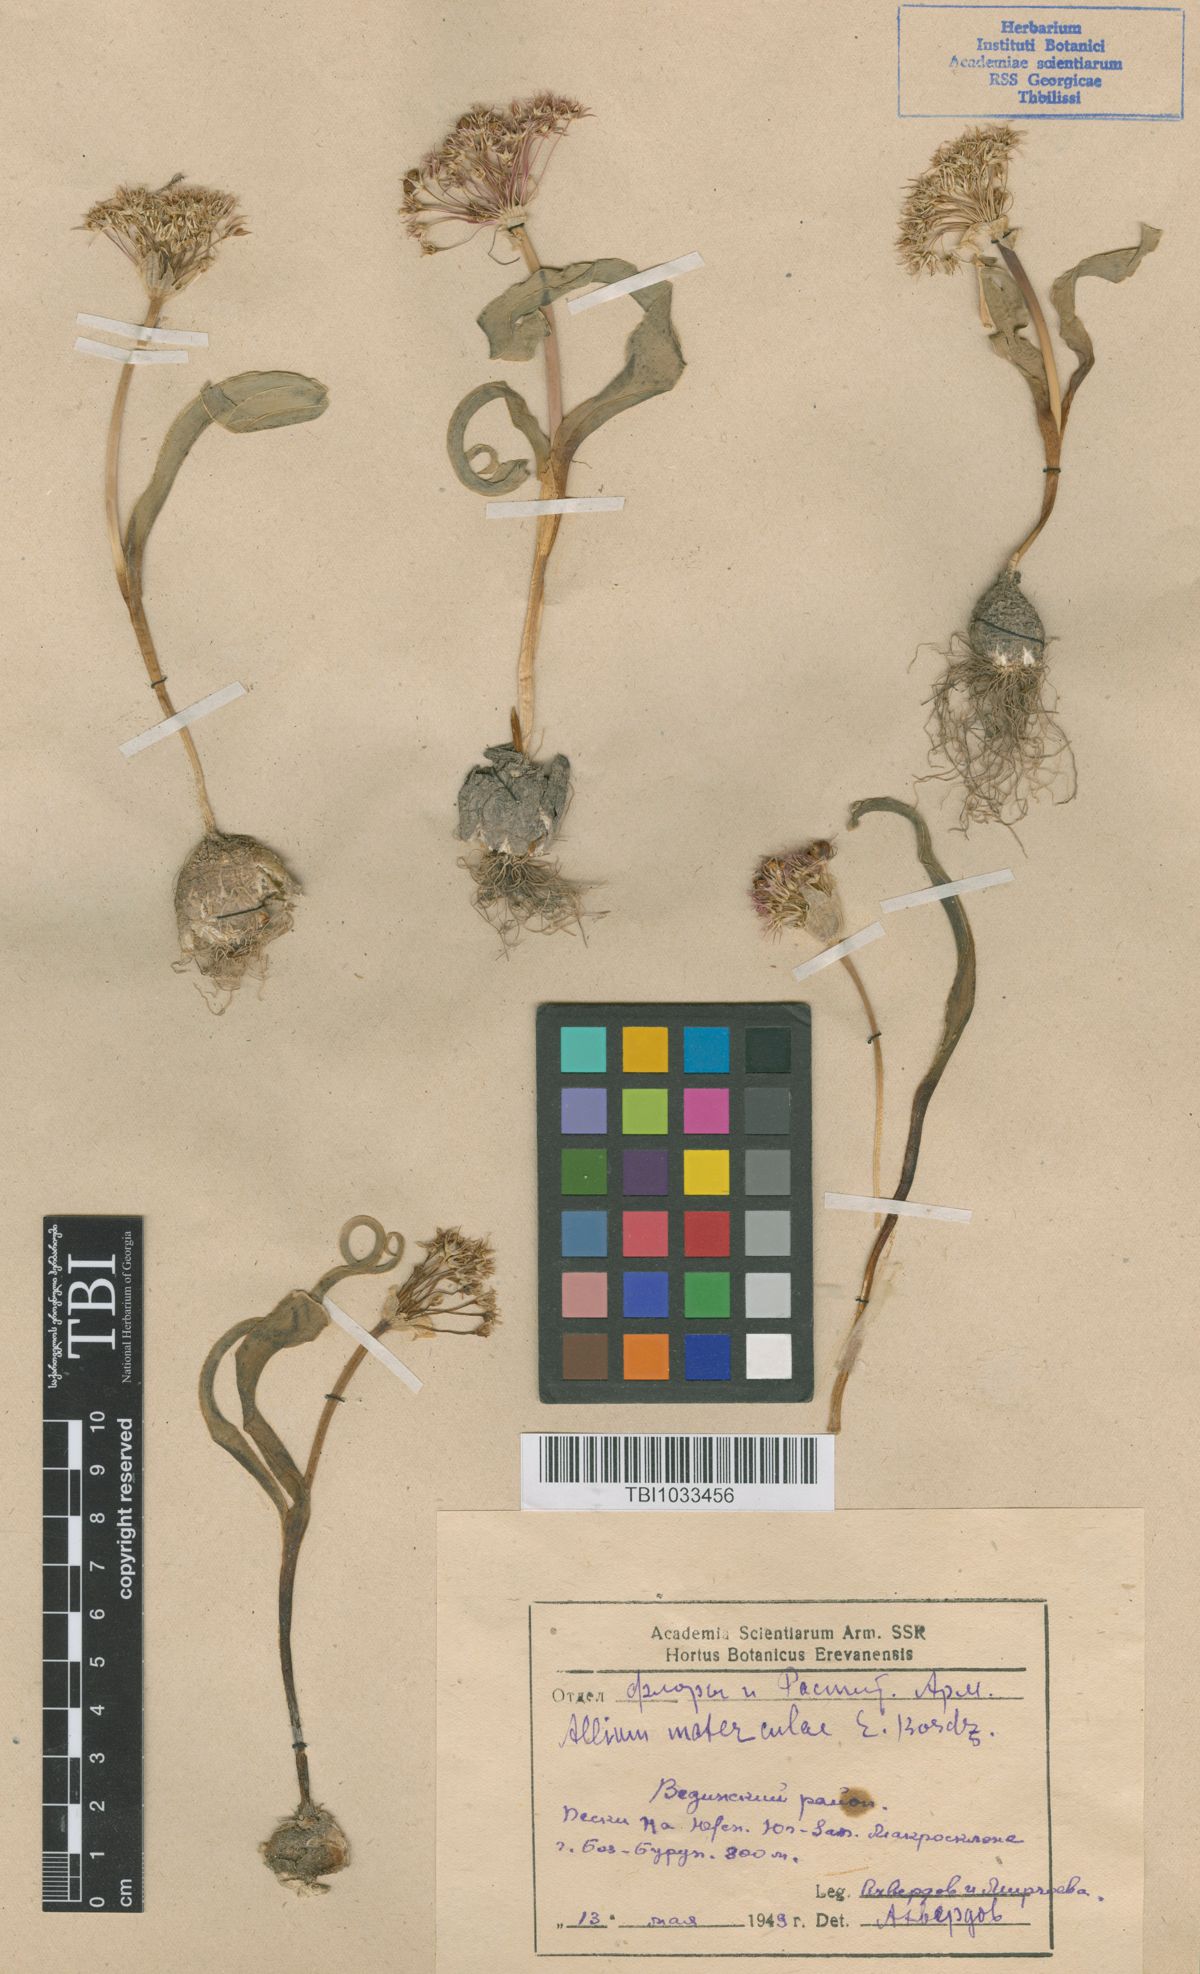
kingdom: Plantae
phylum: Tracheophyta
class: Liliopsida
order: Asparagales
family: Amaryllidaceae
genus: Allium
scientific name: Allium materculae
